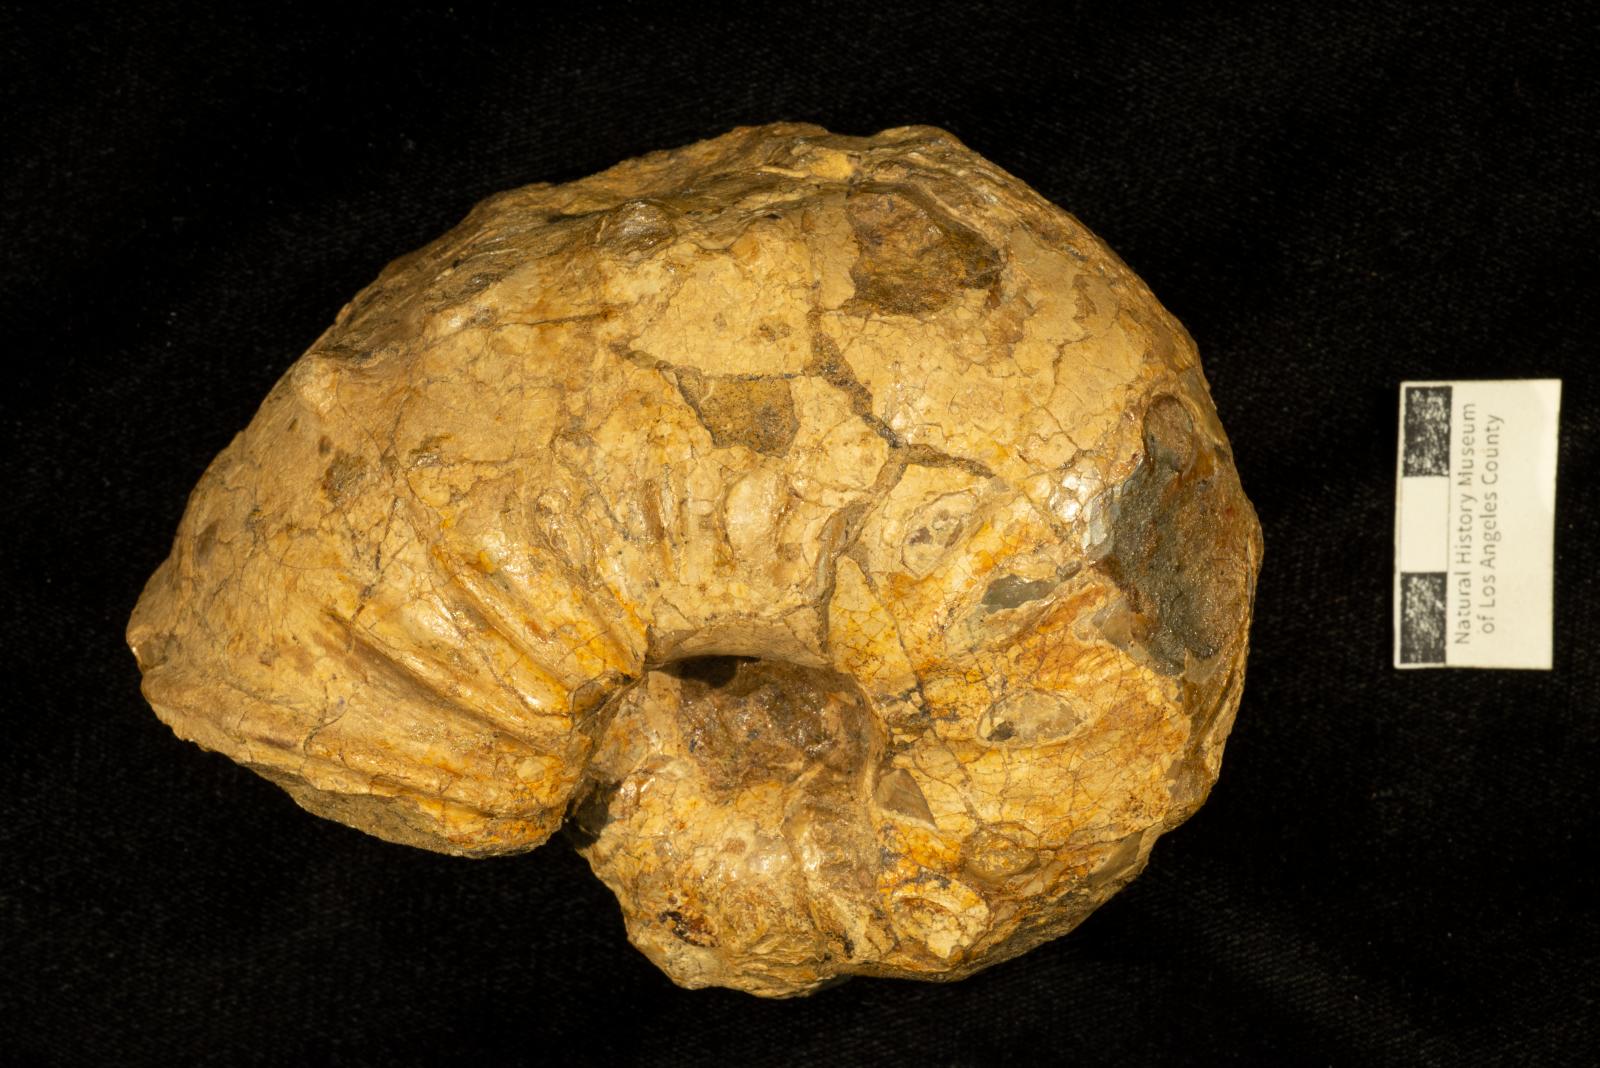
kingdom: Animalia
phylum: Mollusca
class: Cephalopoda
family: Pachydiscidae
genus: Menuites
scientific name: Menuites
